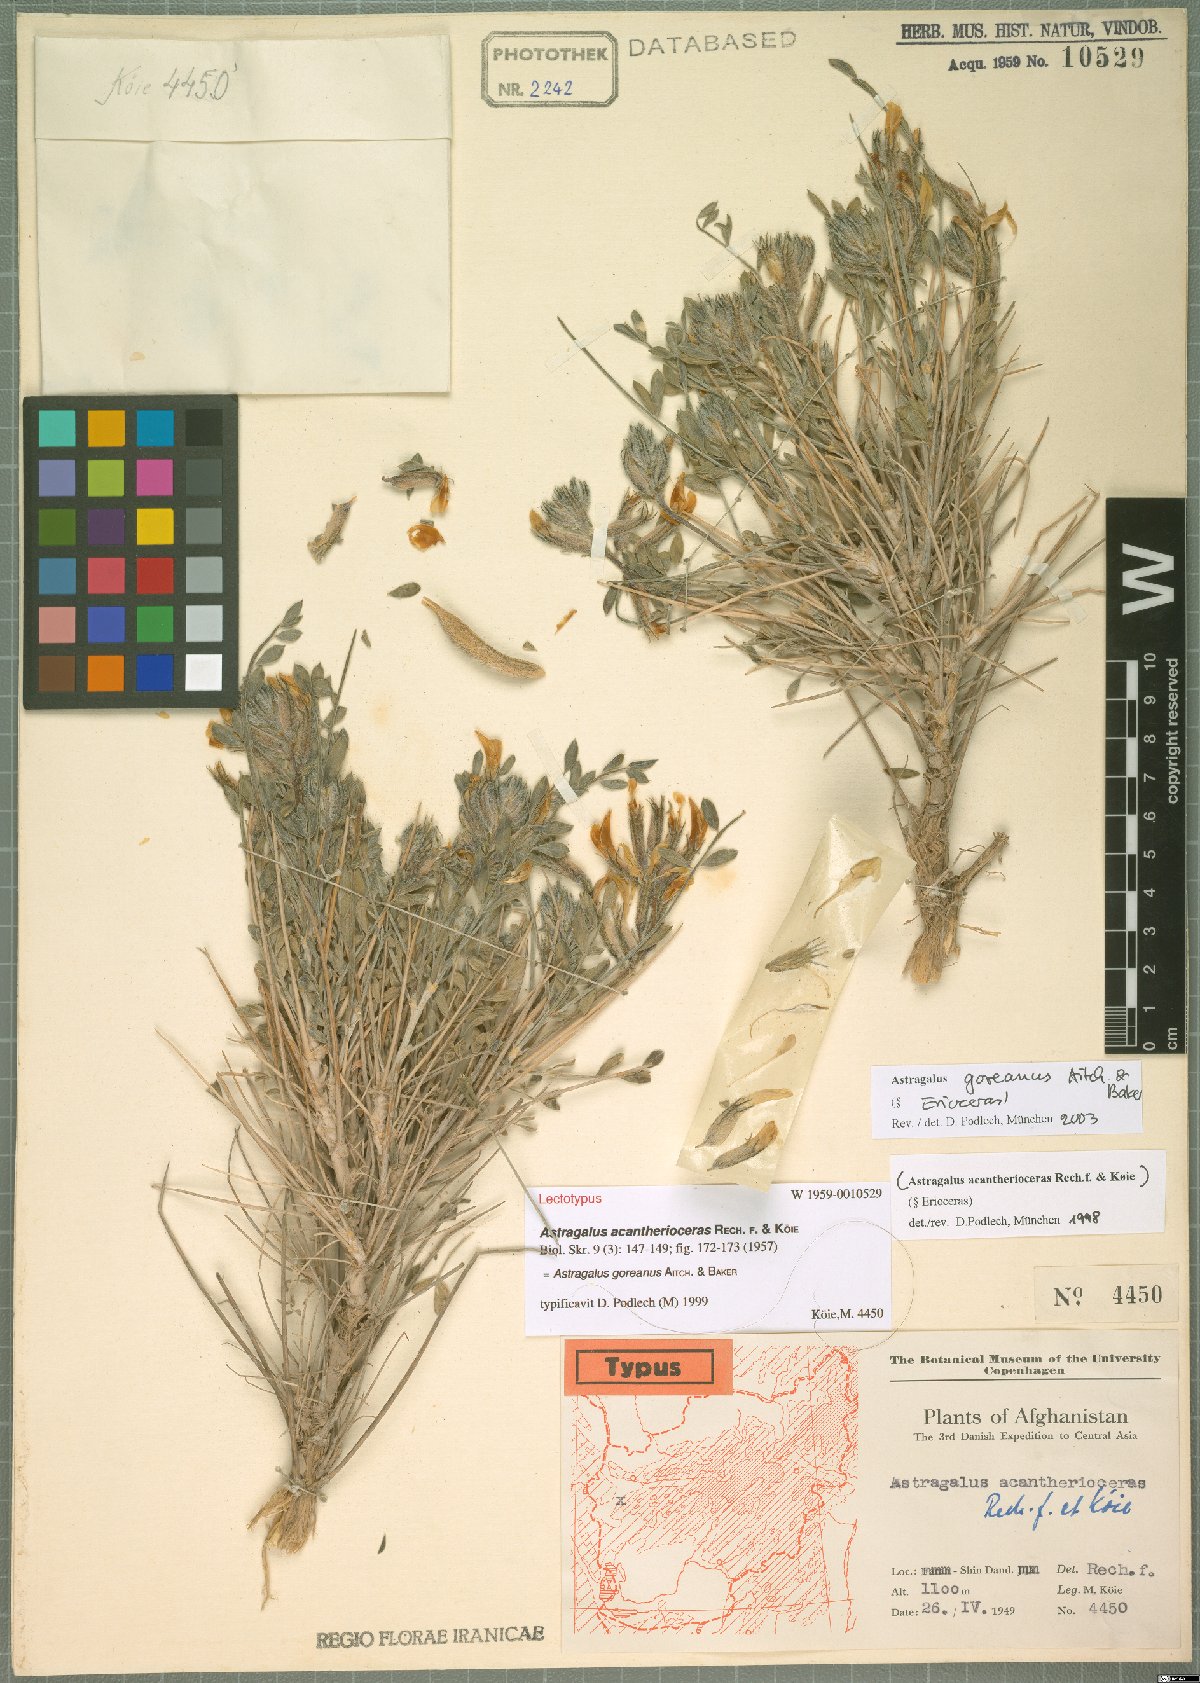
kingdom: Plantae
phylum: Tracheophyta
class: Magnoliopsida
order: Fabales
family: Fabaceae
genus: Astragalus
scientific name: Astragalus goreanus
